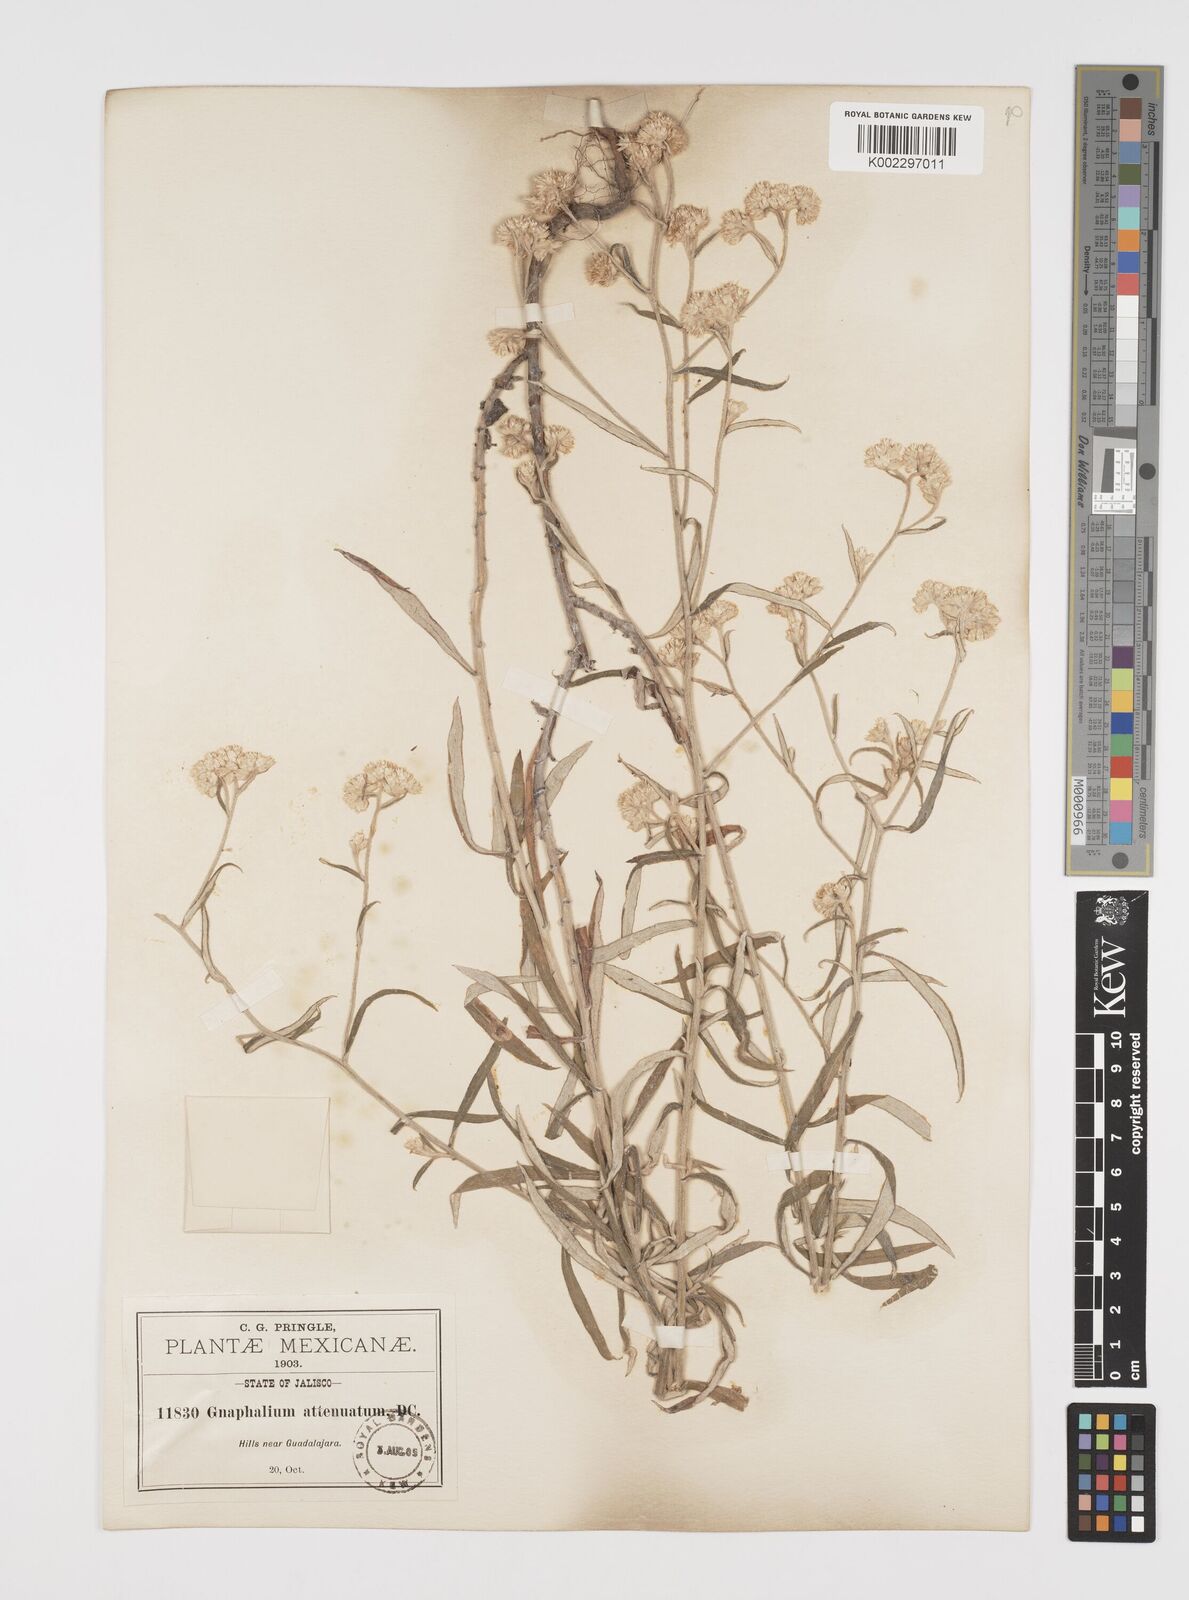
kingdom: Plantae
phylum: Tracheophyta
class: Magnoliopsida
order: Asterales
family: Asteraceae
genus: Pseudognaphalium
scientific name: Pseudognaphalium attenuatum
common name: Tapered cudweed
